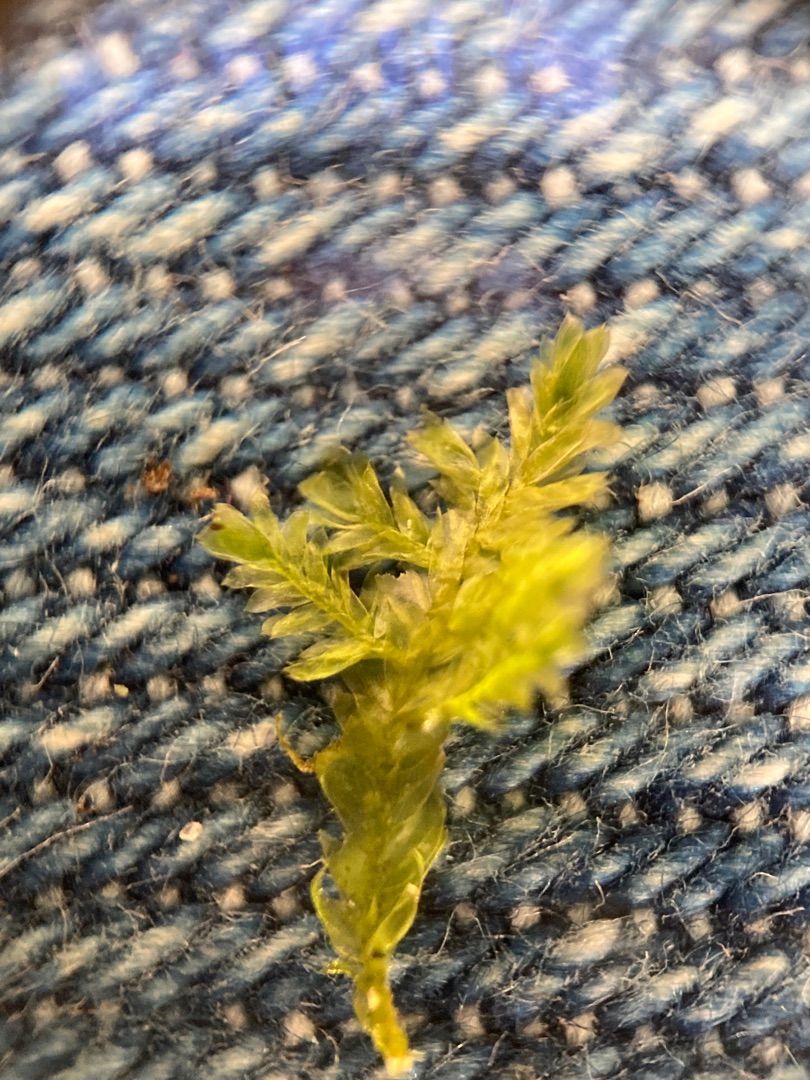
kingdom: Plantae
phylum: Bryophyta
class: Bryopsida
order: Hypnales
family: Neckeraceae
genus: Alleniella
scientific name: Alleniella complanata
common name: Almindelig fladmos
